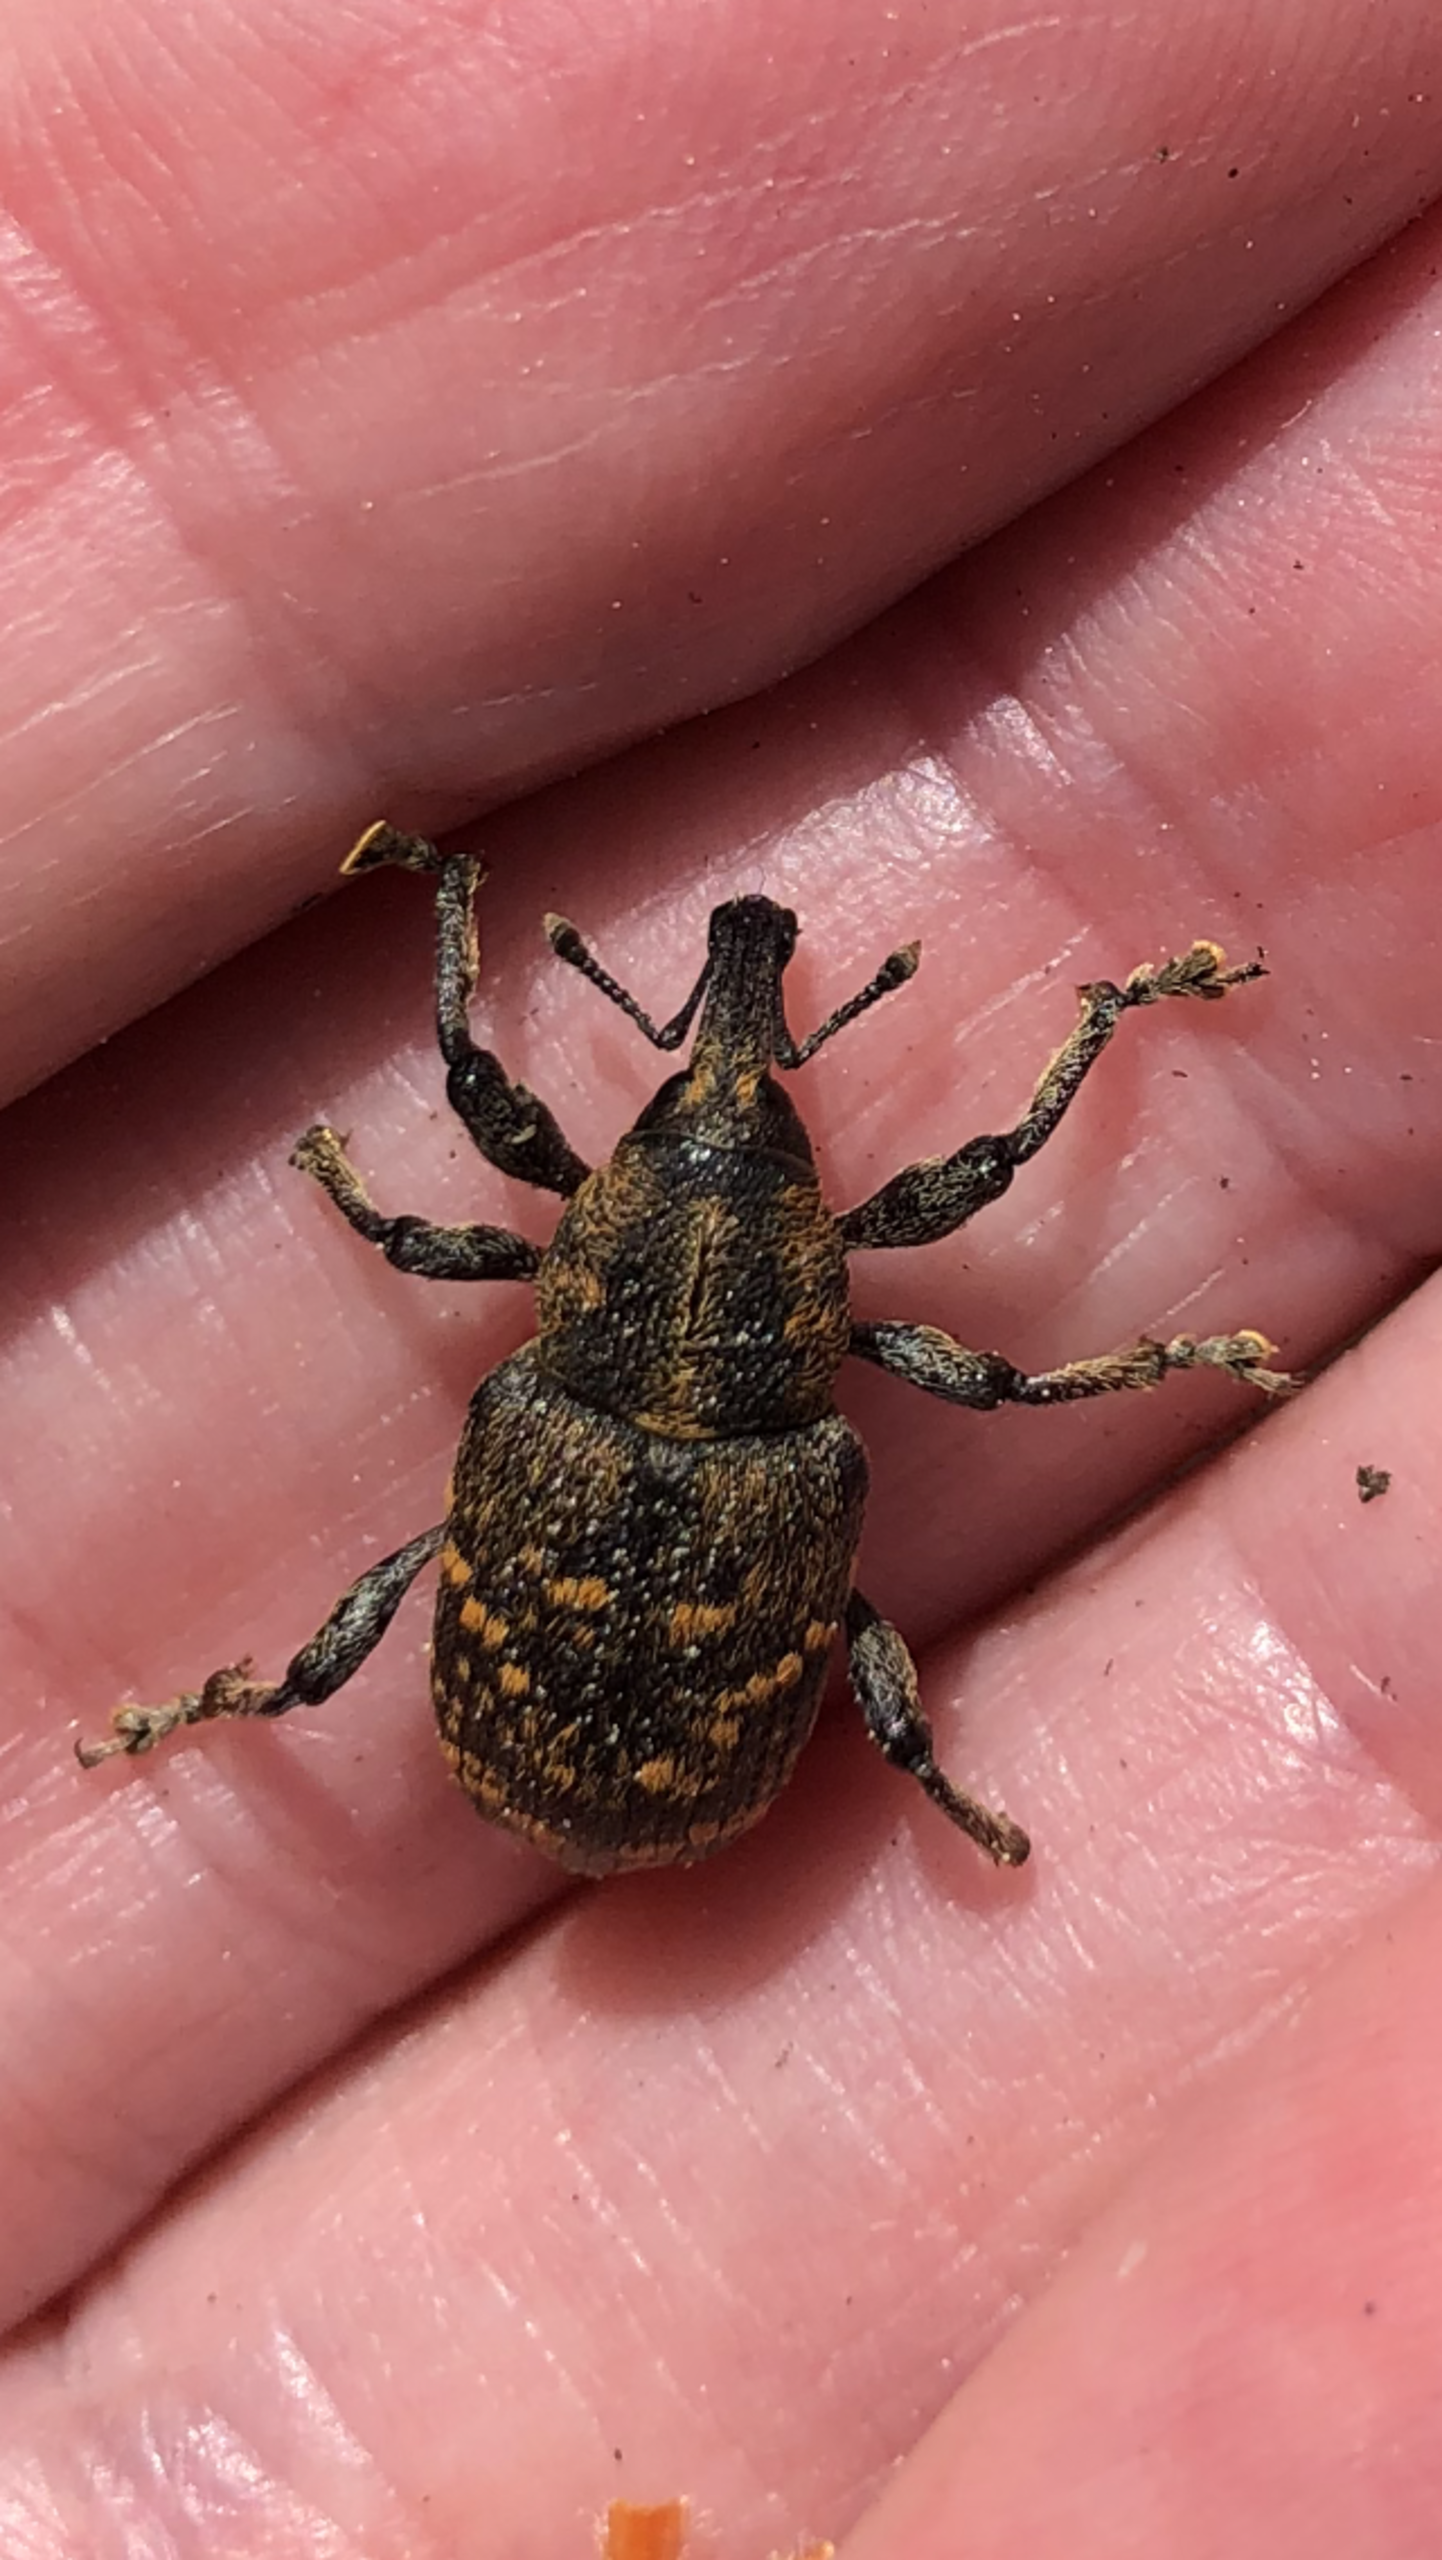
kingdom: Animalia
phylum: Arthropoda
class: Insecta
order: Coleoptera
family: Curculionidae
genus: Hylobius
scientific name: Hylobius abietis
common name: Stor nåletræsnudebille
